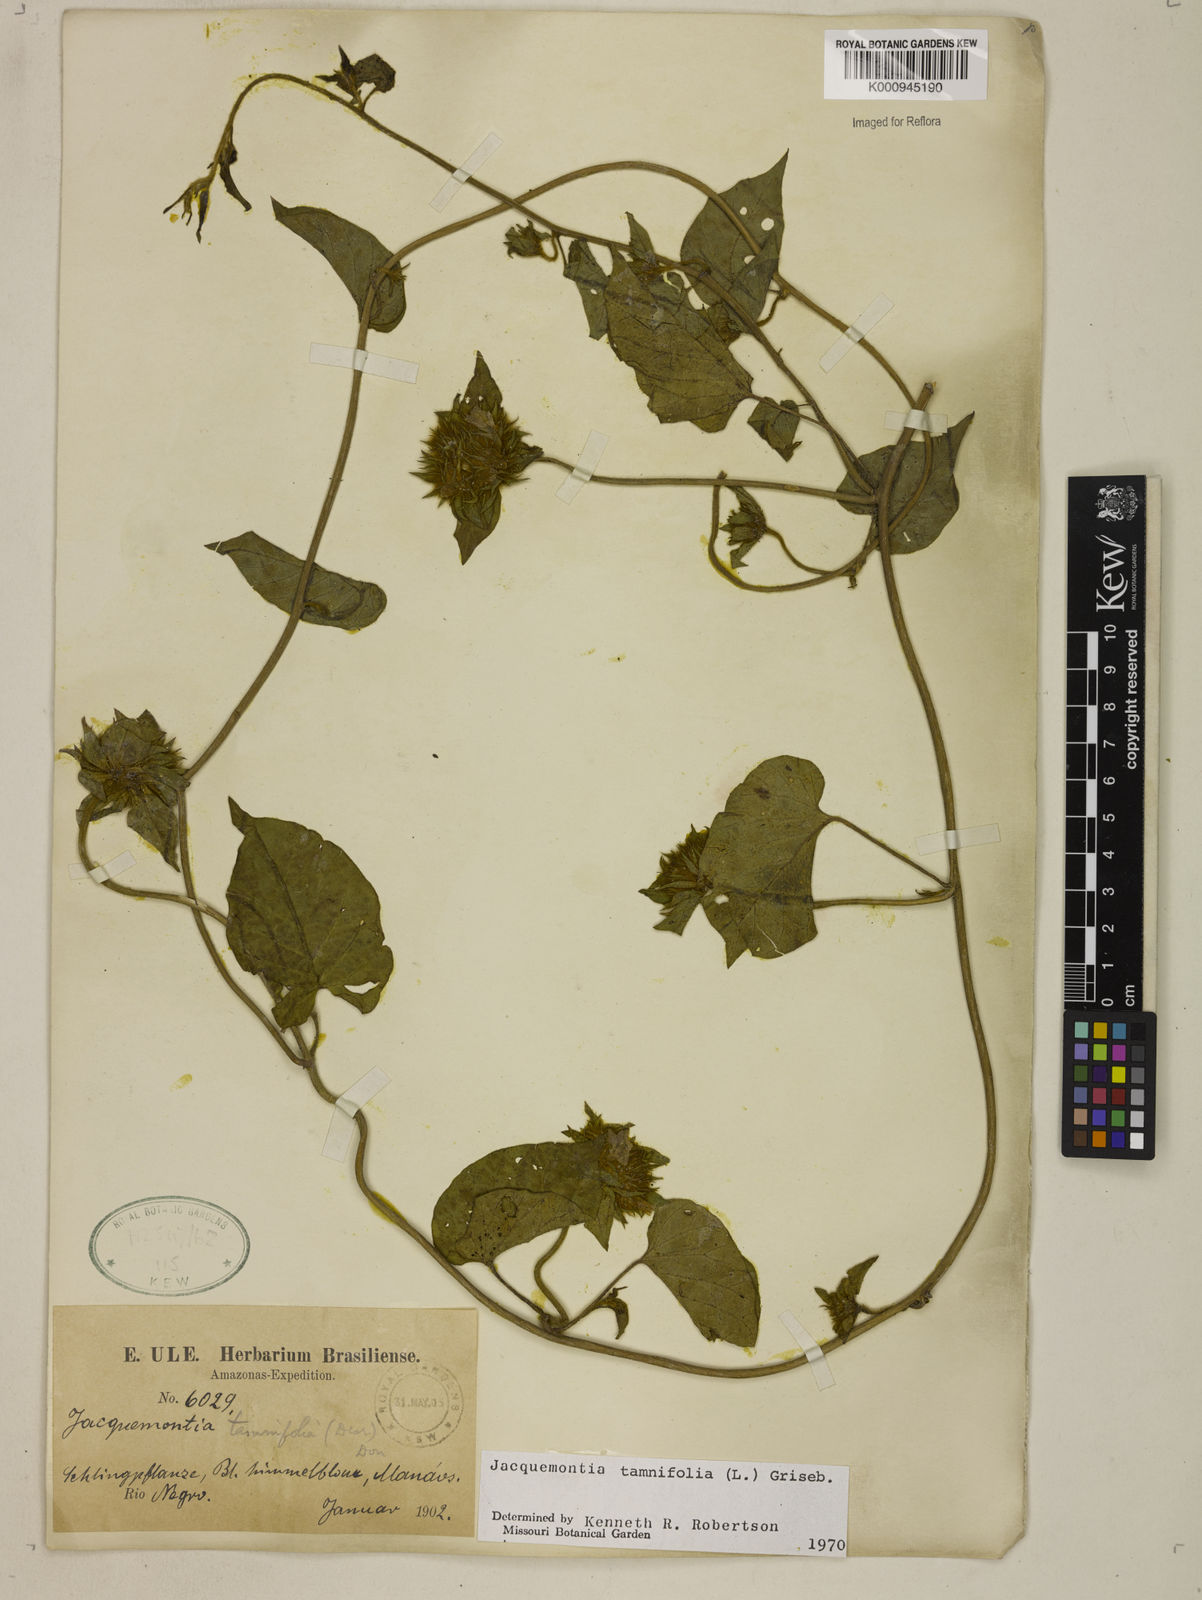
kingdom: Plantae
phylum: Tracheophyta
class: Magnoliopsida
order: Solanales
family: Convolvulaceae
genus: Jacquemontia
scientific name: Jacquemontia tamnifolia
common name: Hairy clustervine
